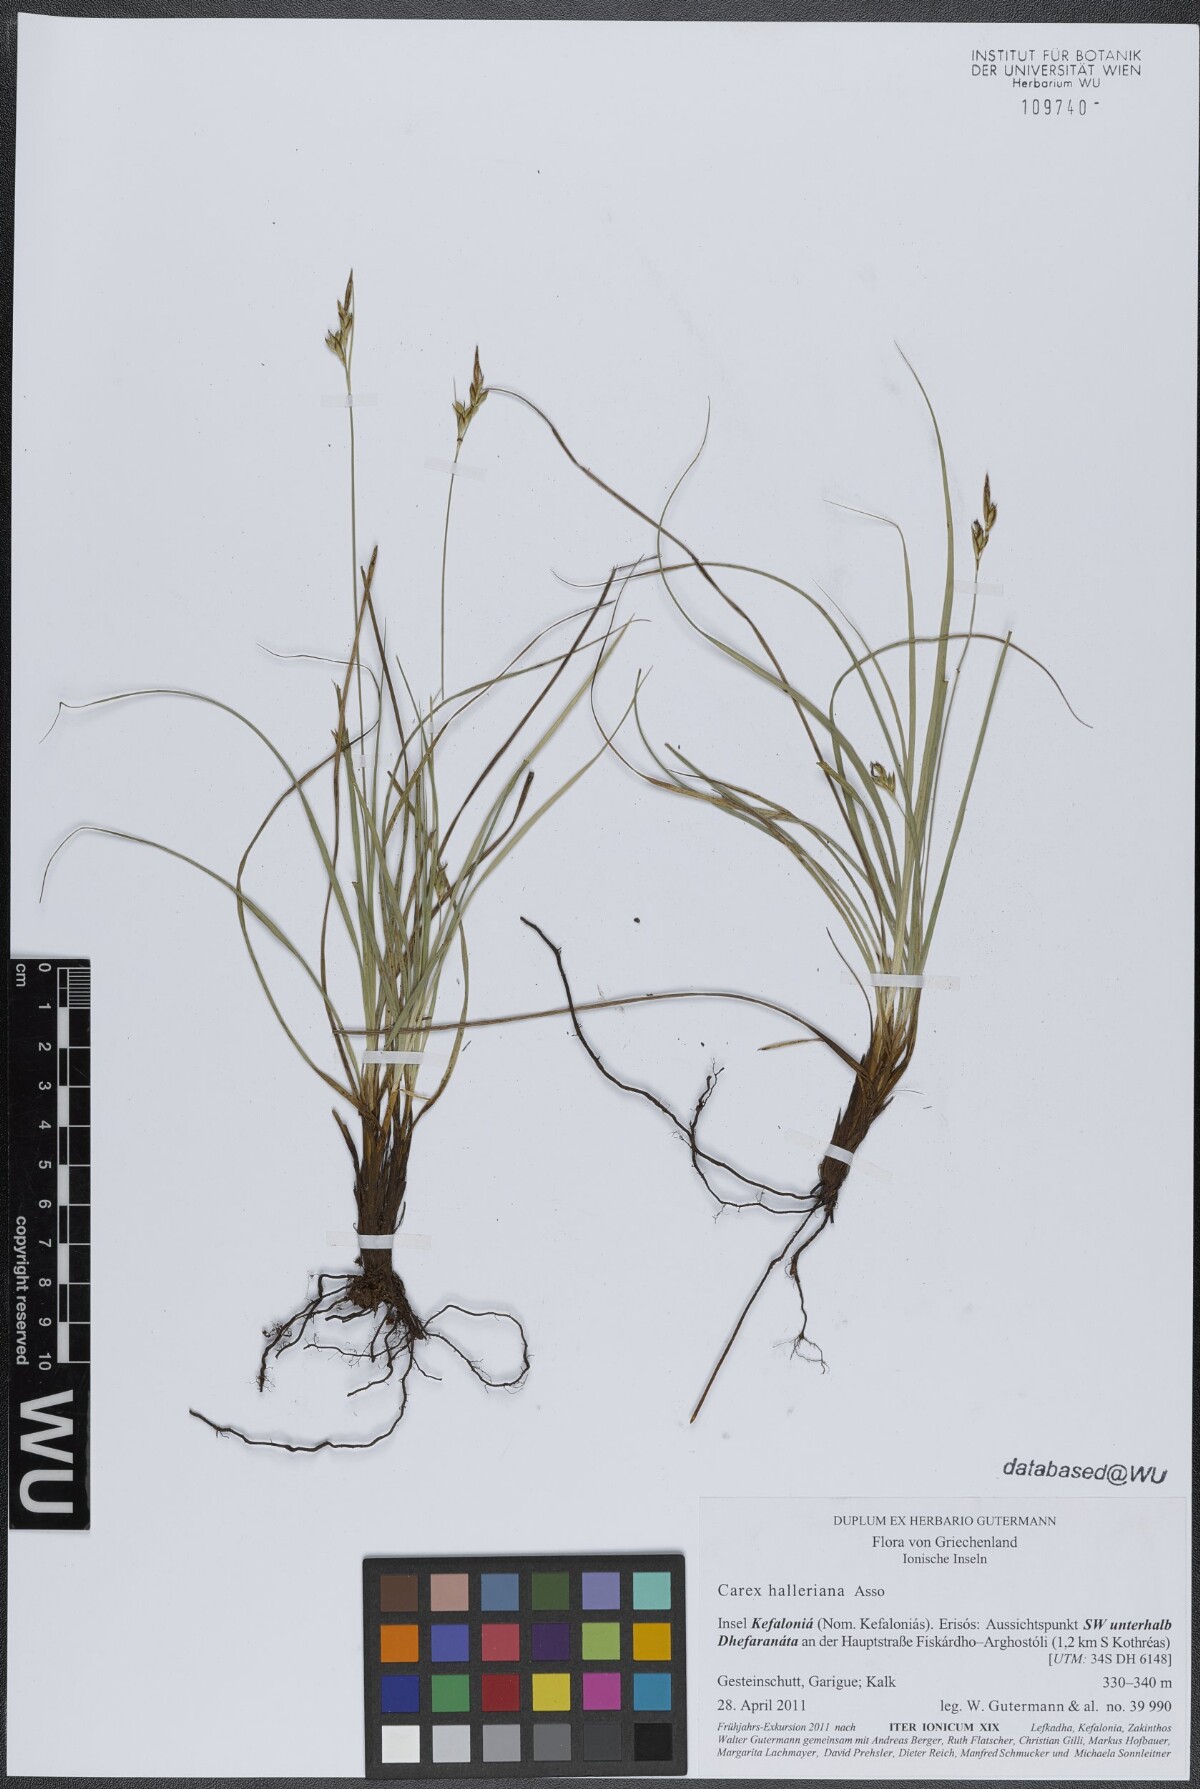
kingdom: Plantae
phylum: Tracheophyta
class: Liliopsida
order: Poales
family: Cyperaceae
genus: Carex
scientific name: Carex halleriana
